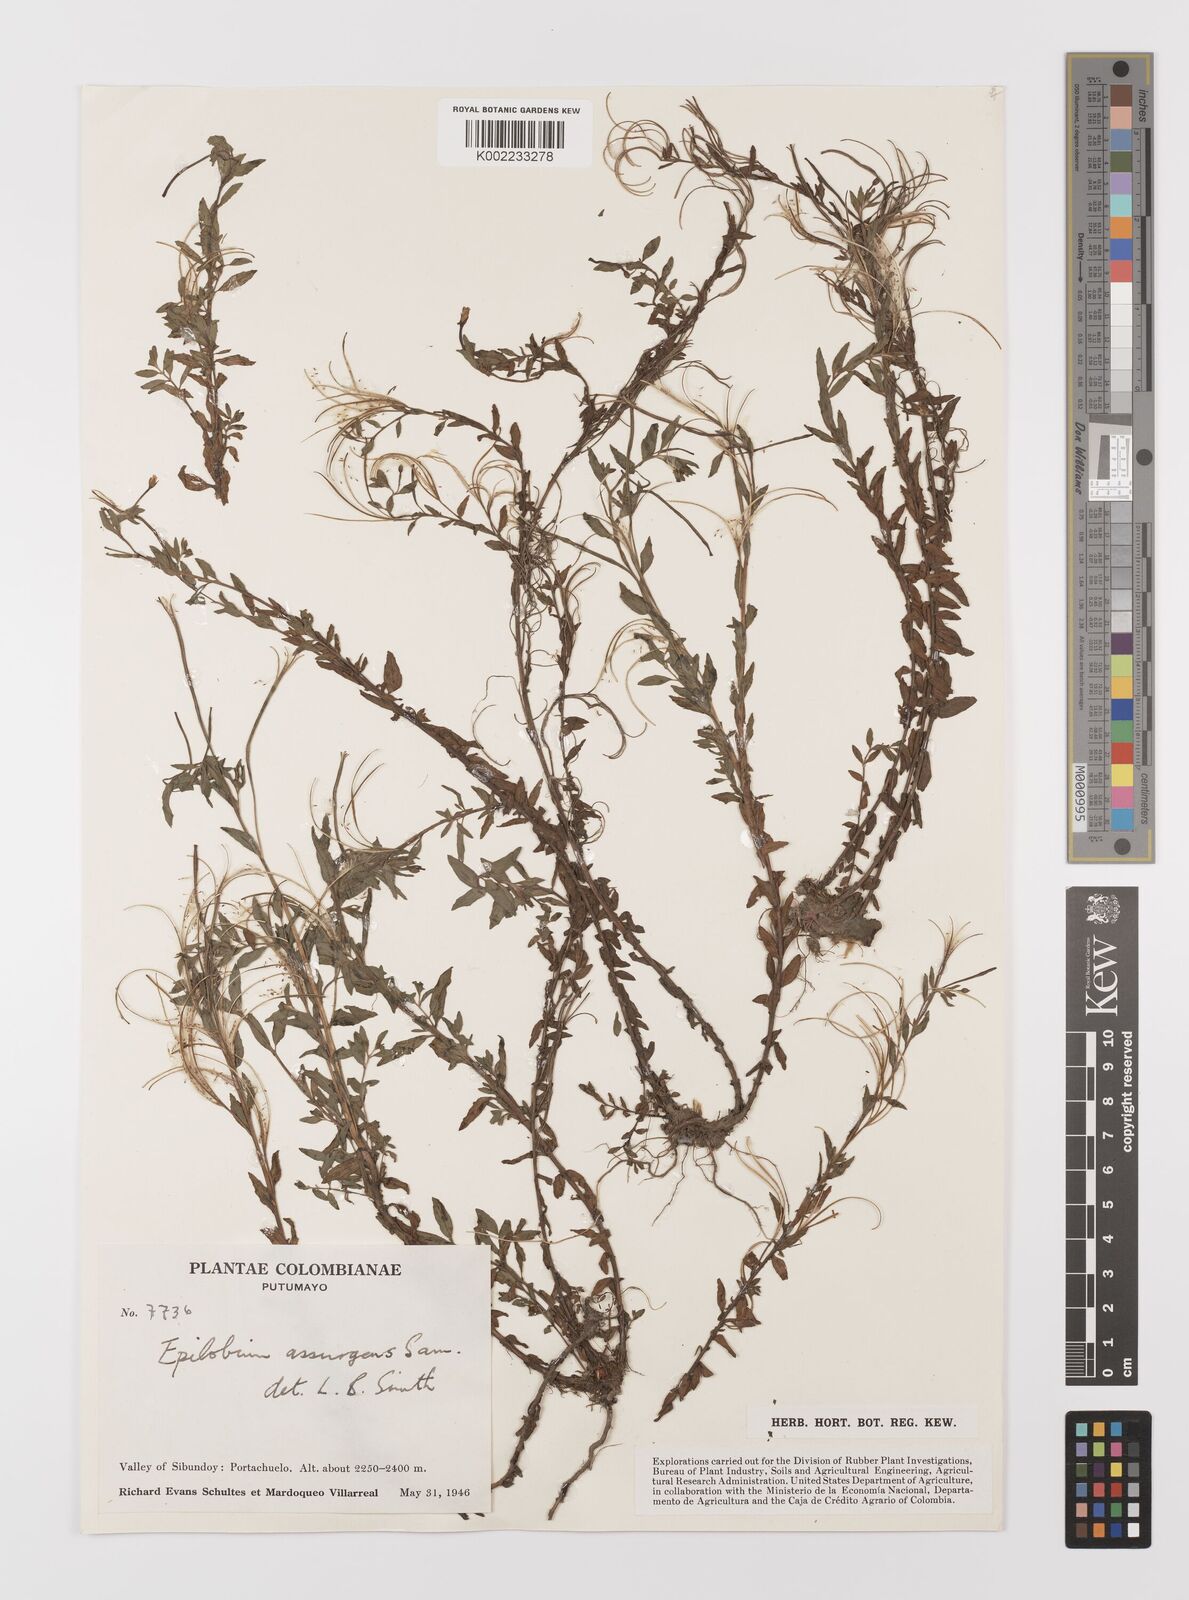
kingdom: Plantae
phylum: Tracheophyta
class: Magnoliopsida
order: Myrtales
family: Onagraceae
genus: Epilobium
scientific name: Epilobium denticulatum
